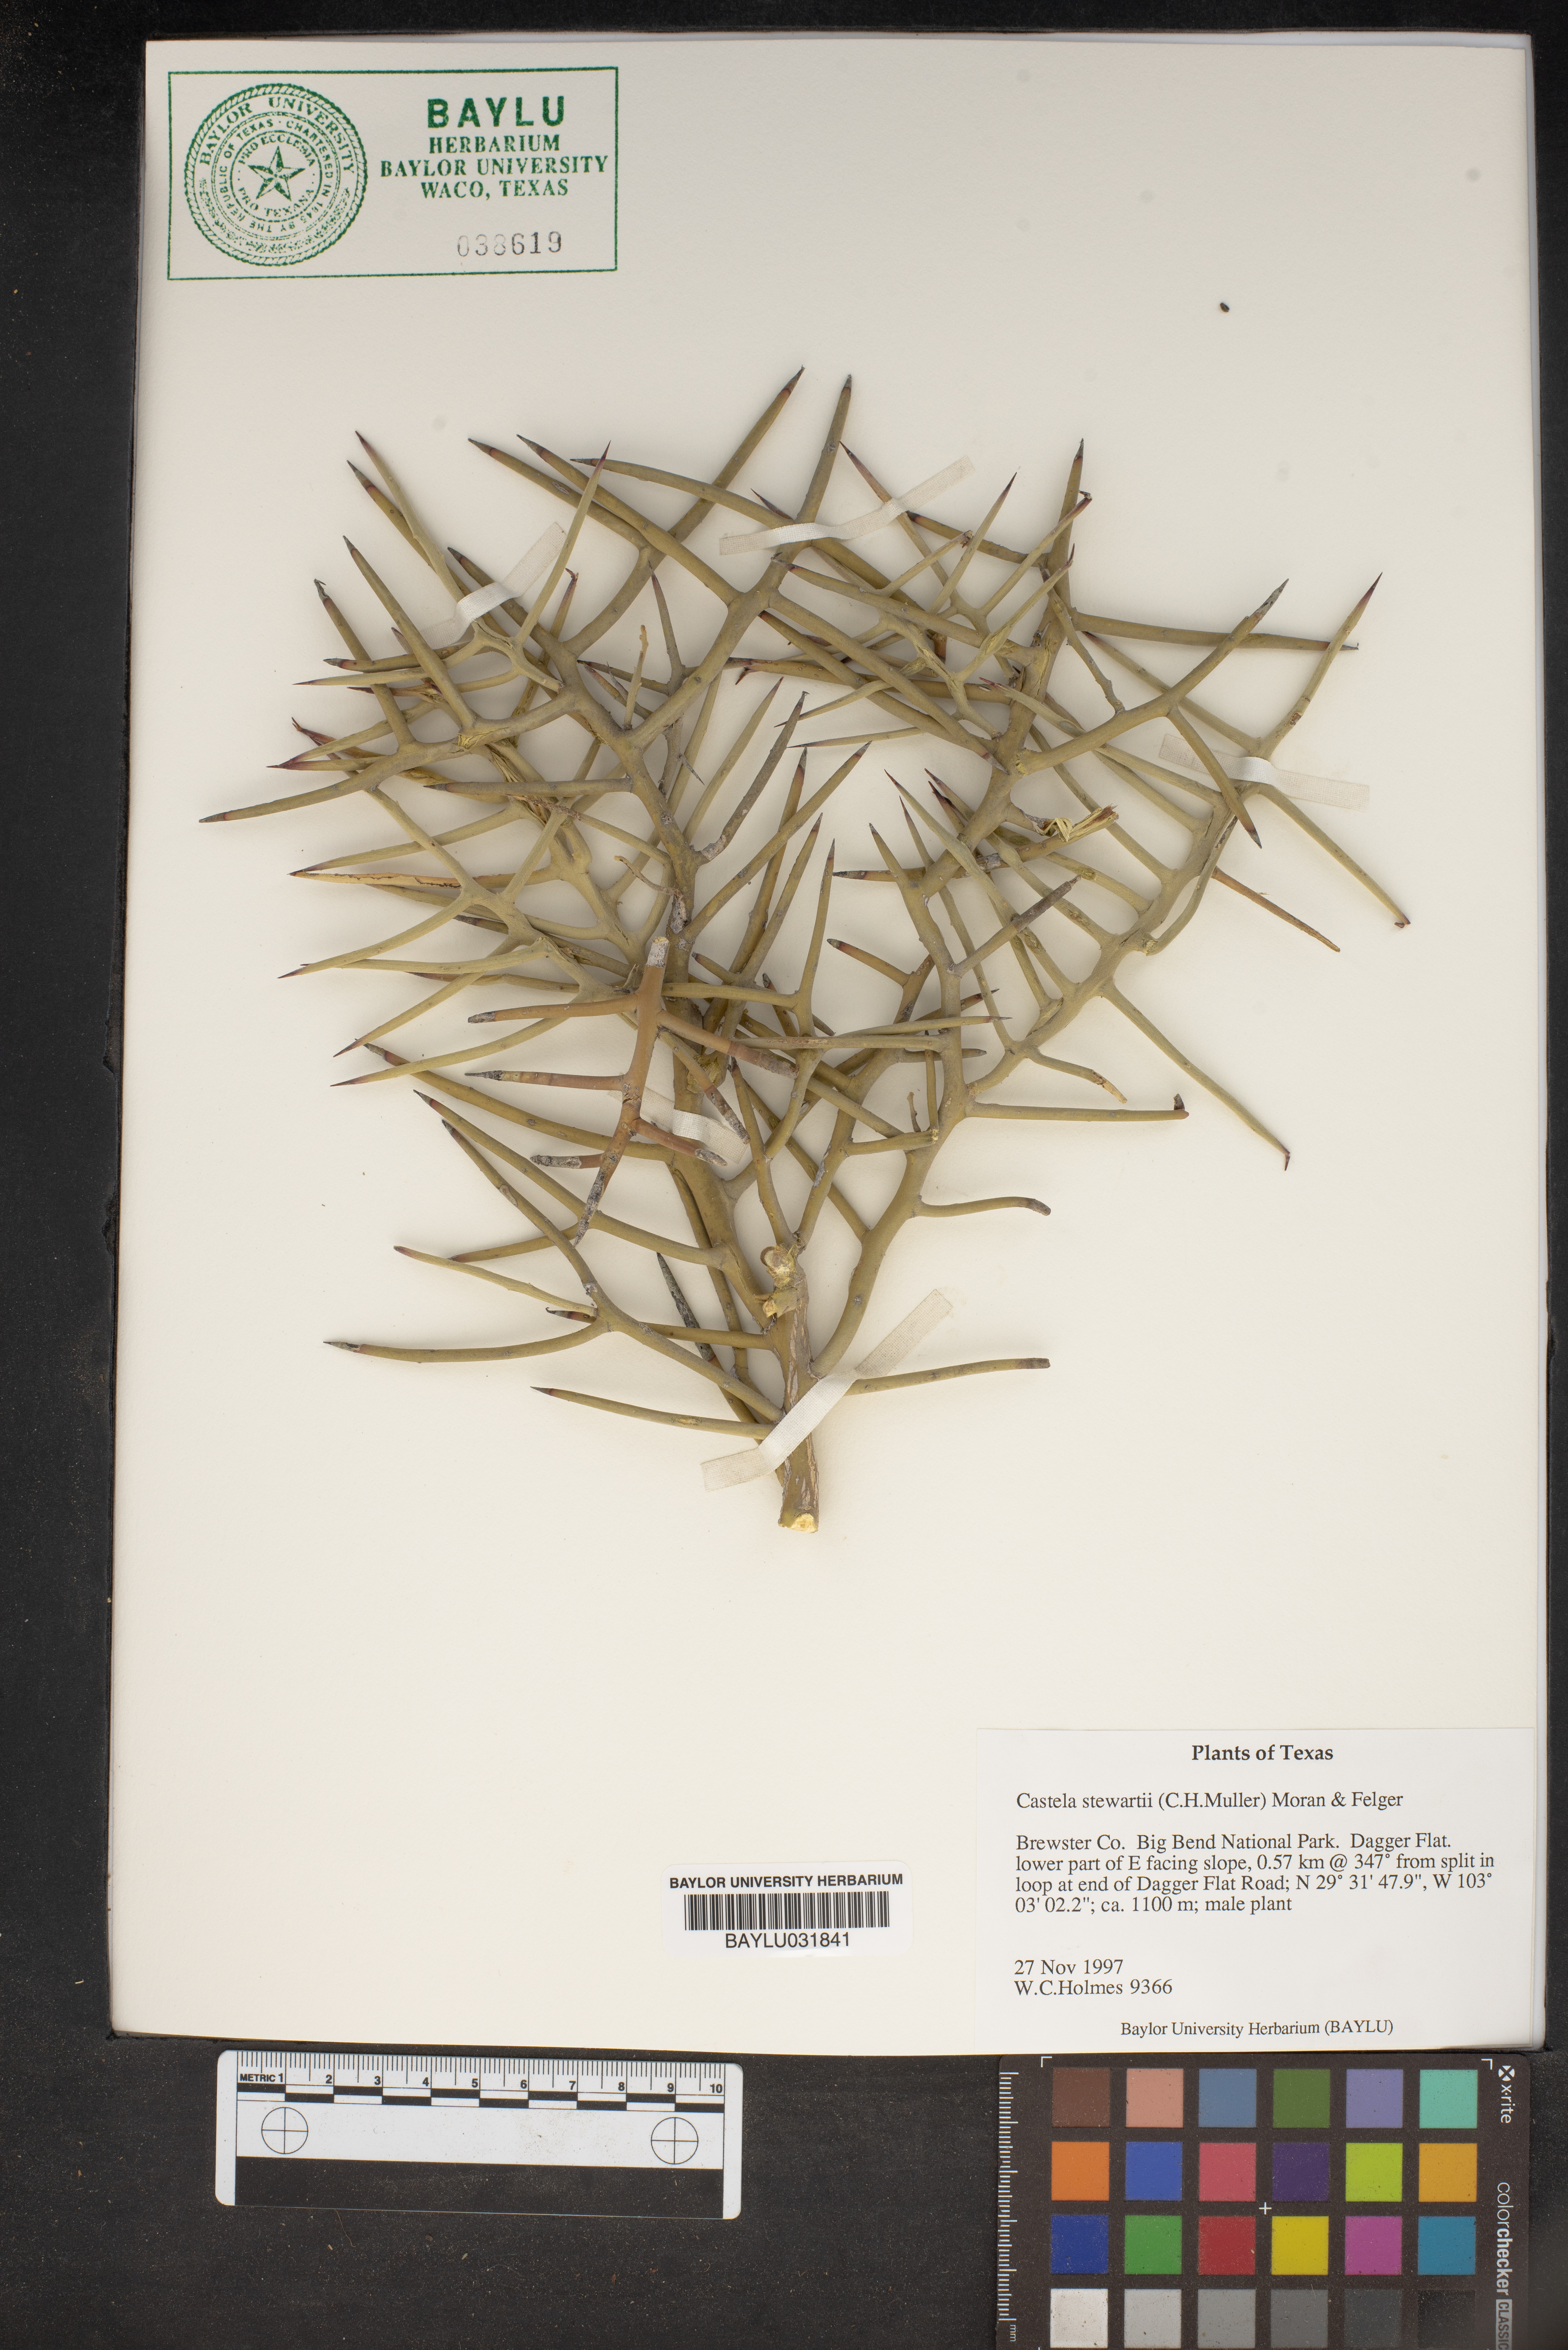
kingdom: Plantae
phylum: Tracheophyta
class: Magnoliopsida
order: Sapindales
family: Simaroubaceae
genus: Holacantha
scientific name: Holacantha stewartii
